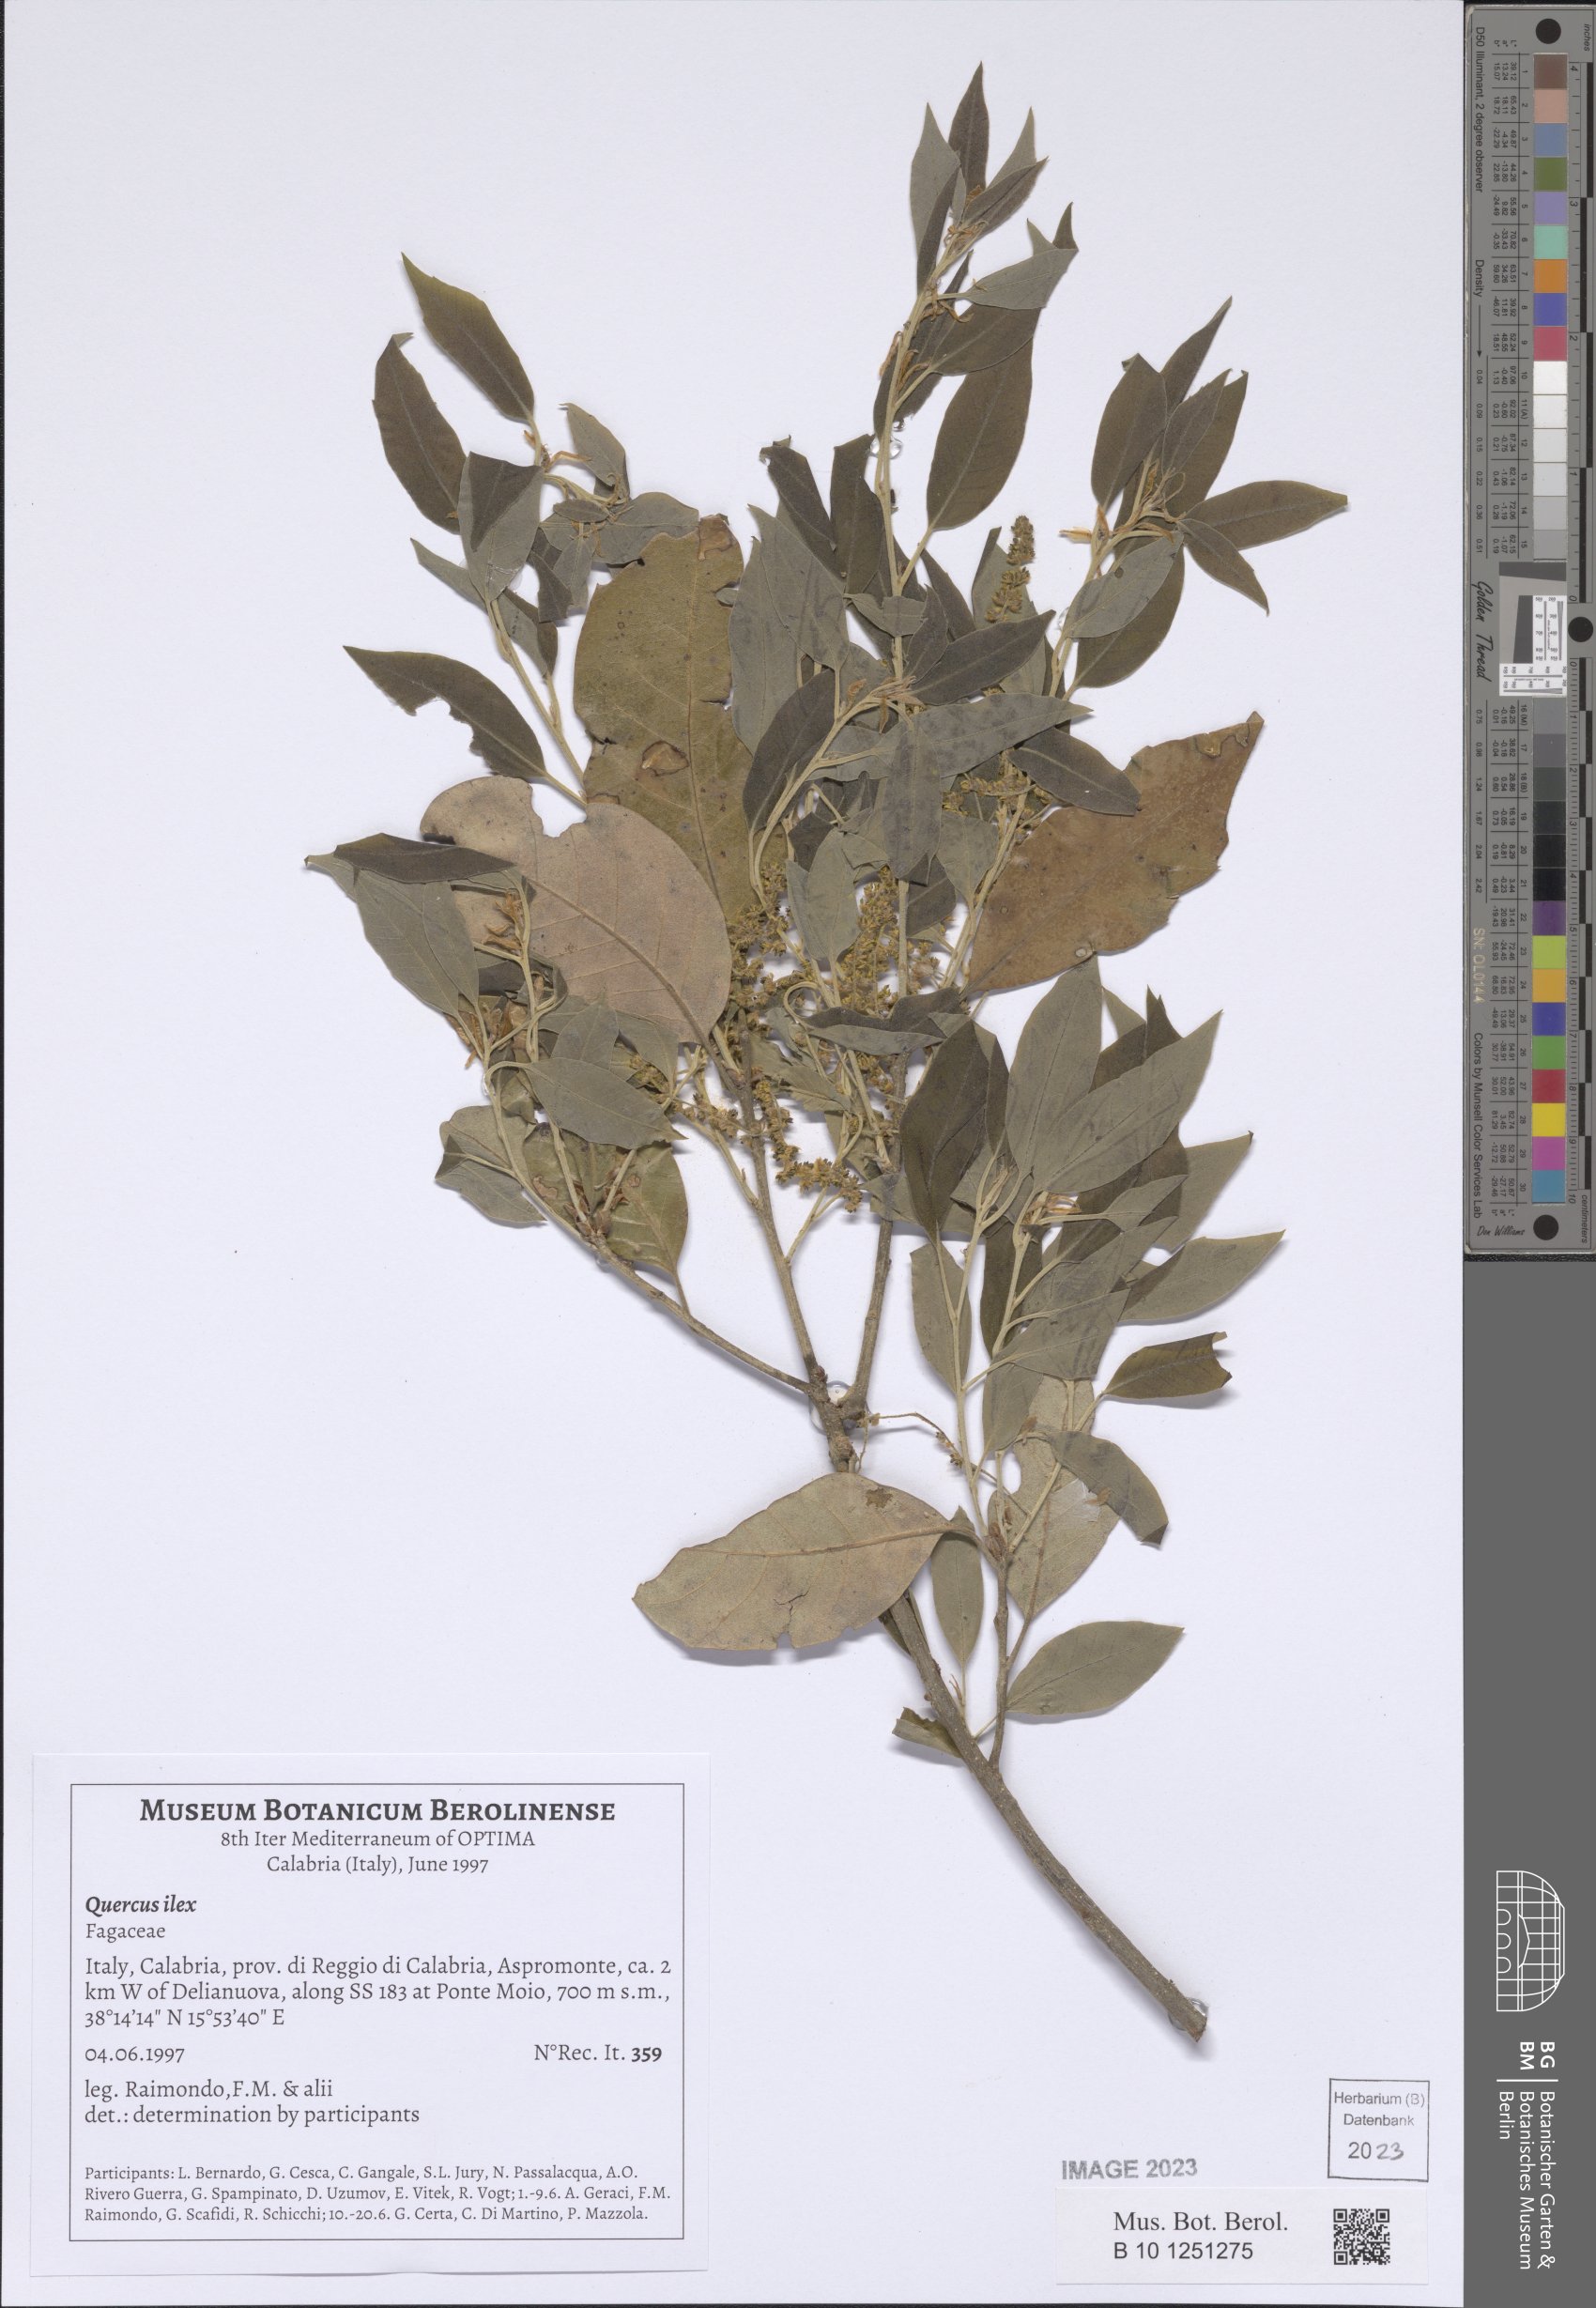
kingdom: Plantae
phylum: Tracheophyta
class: Magnoliopsida
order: Fagales
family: Fagaceae
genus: Quercus
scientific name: Quercus ilex
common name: Evergreen oak
